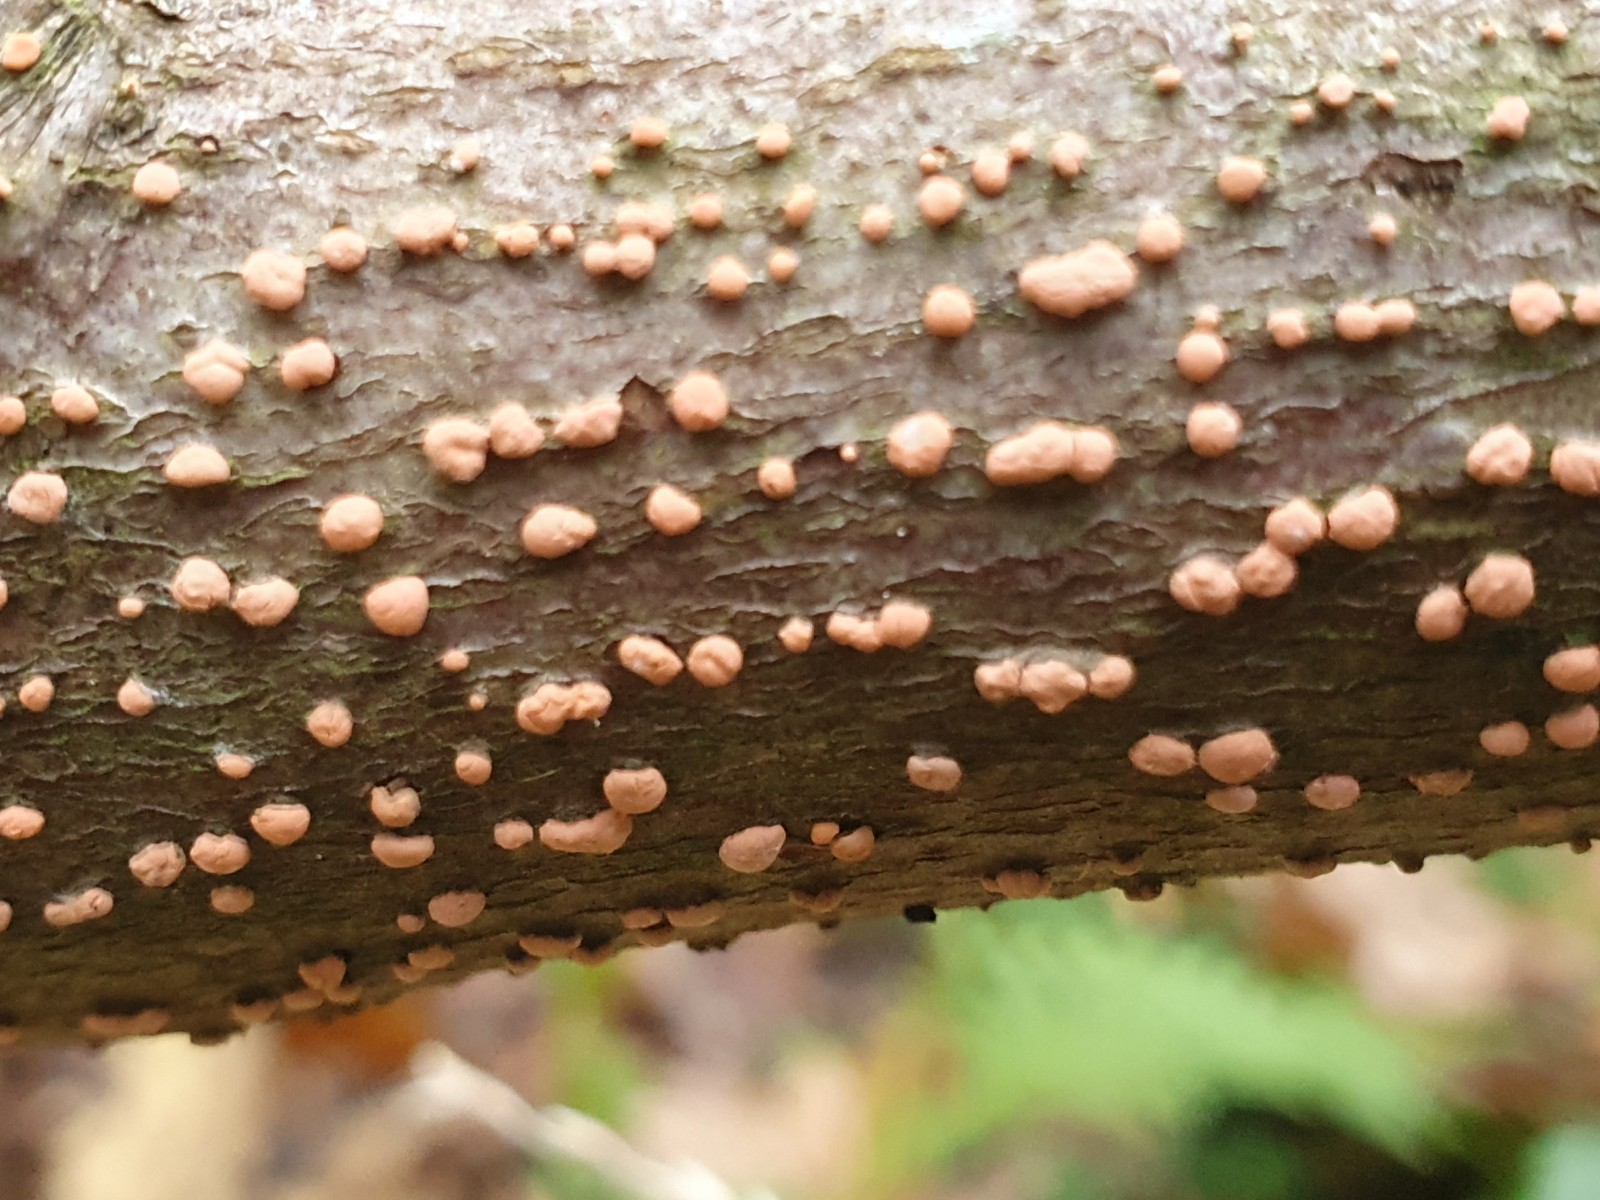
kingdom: Fungi
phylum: Ascomycota
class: Sordariomycetes
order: Hypocreales
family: Nectriaceae
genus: Nectria
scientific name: Nectria cinnabarina
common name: almindelig cinnobersvamp
